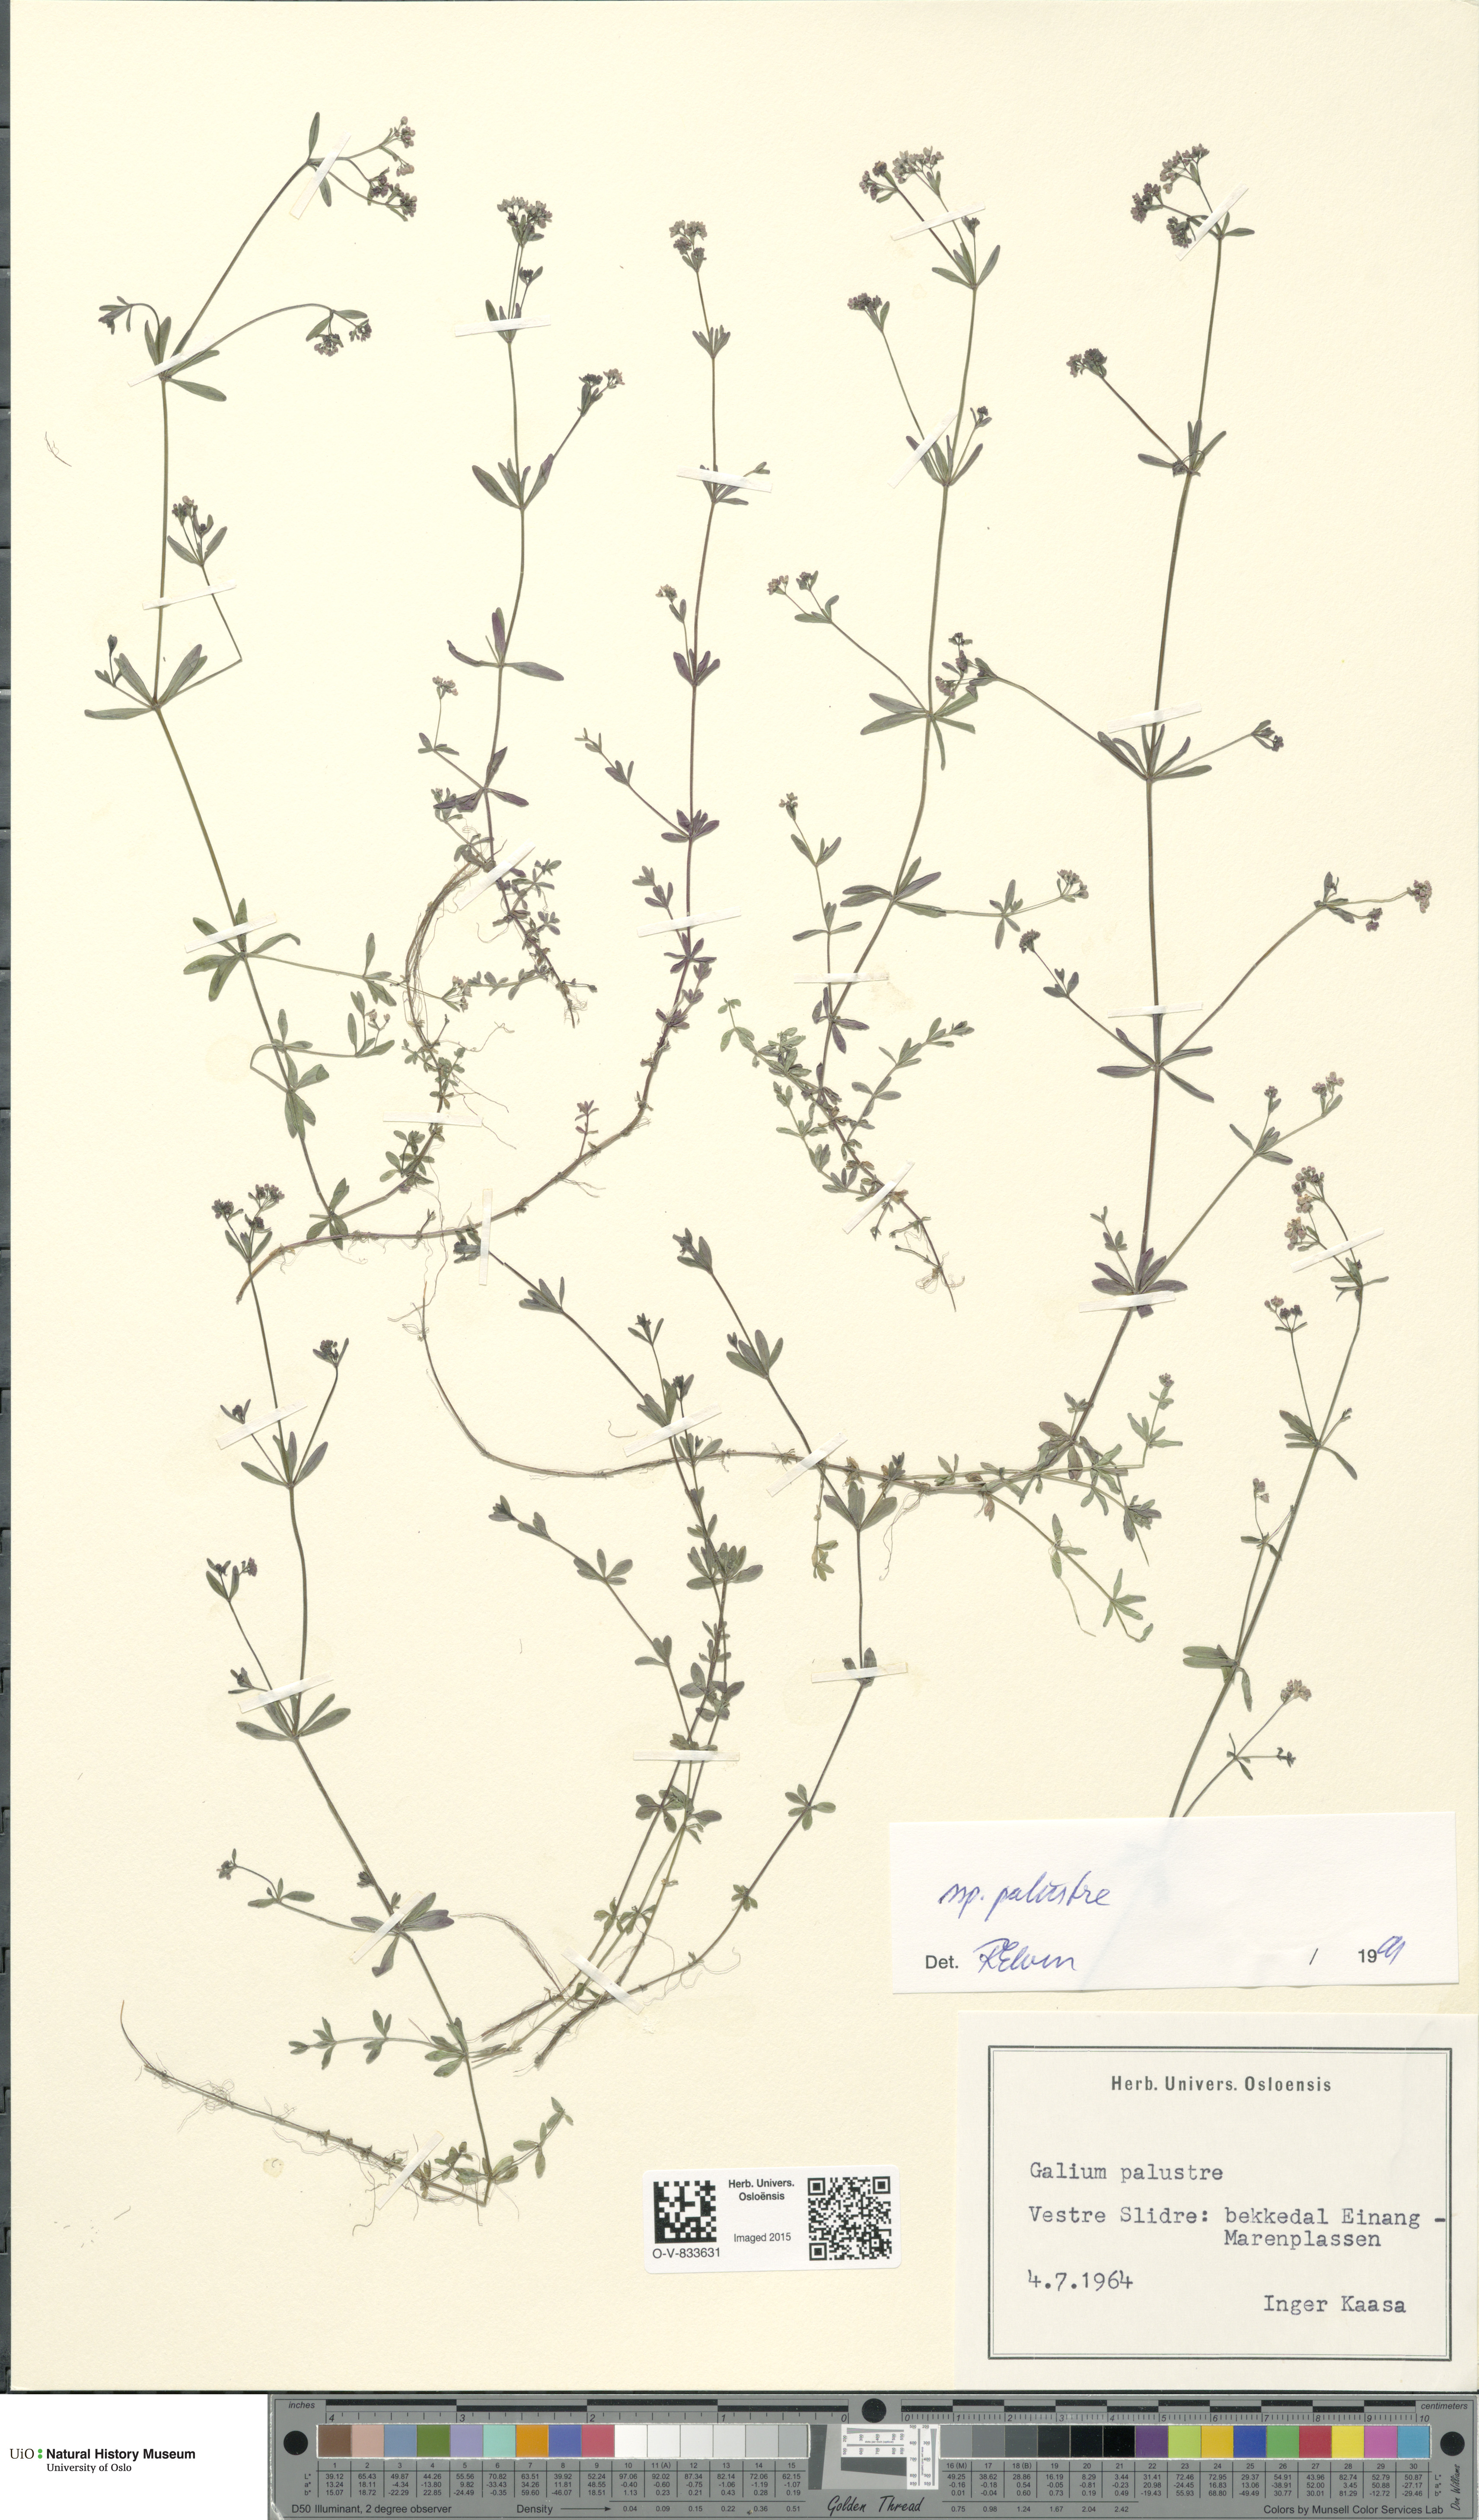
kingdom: Plantae
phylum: Tracheophyta
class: Magnoliopsida
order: Gentianales
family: Rubiaceae
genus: Galium
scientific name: Galium palustre
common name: Common marsh-bedstraw
